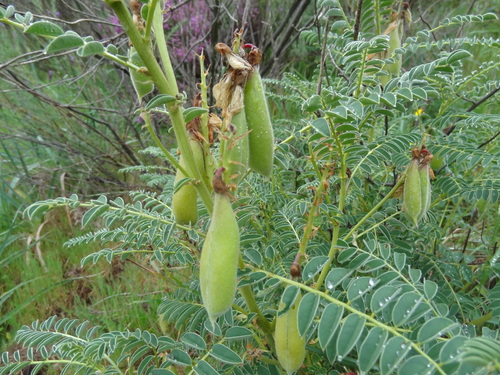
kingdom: Plantae
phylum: Tracheophyta
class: Magnoliopsida
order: Fabales
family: Fabaceae
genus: Erophaca
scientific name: Erophaca baetica
